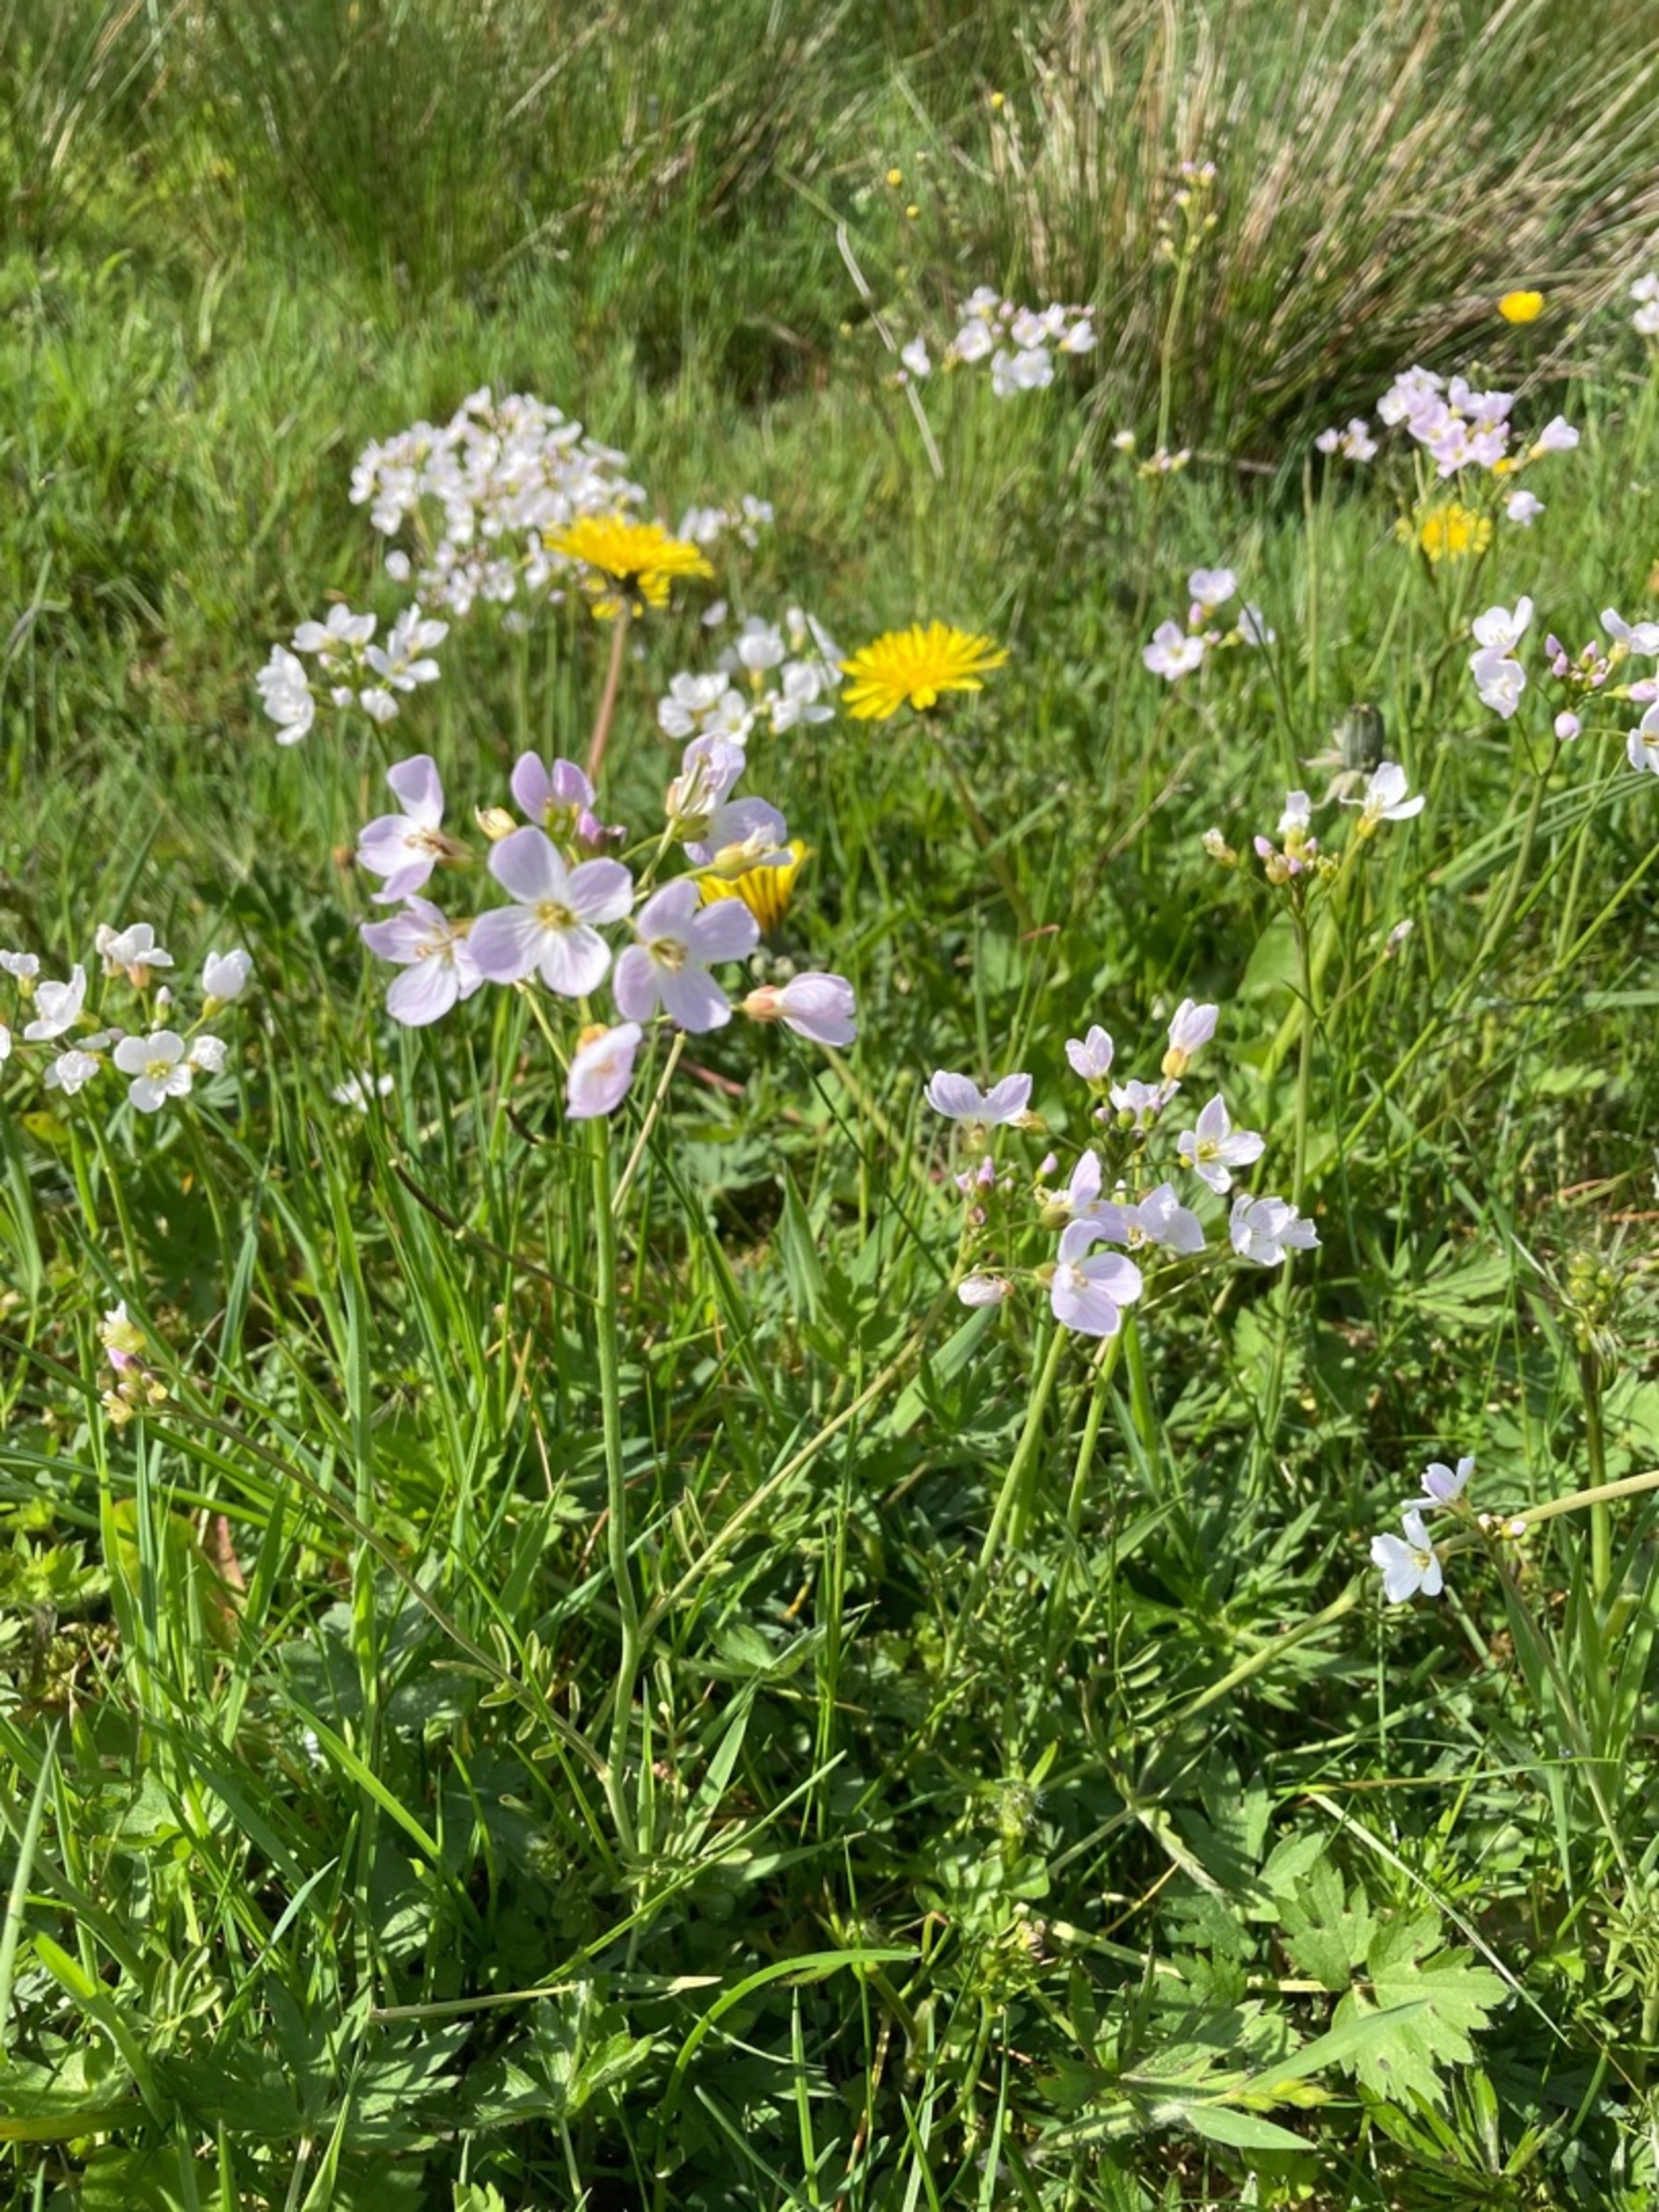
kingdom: Plantae
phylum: Tracheophyta
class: Magnoliopsida
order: Brassicales
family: Brassicaceae
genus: Cardamine
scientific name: Cardamine pratensis
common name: Engkarse
